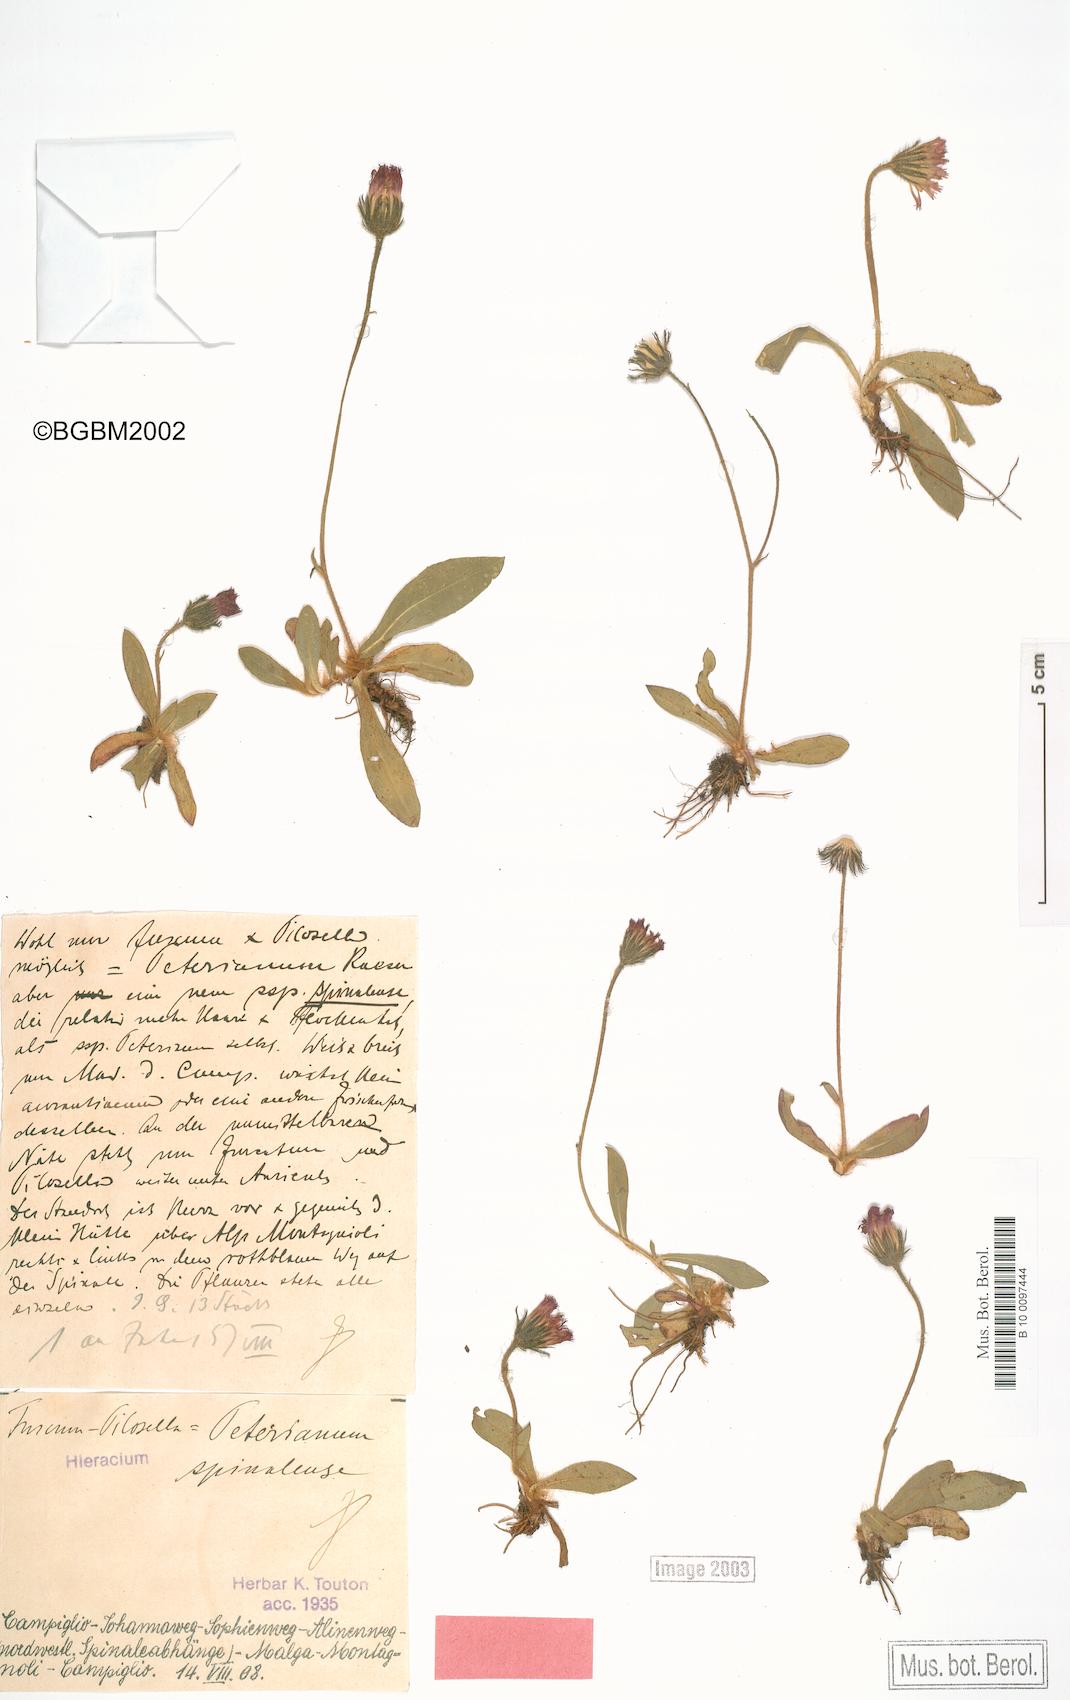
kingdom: Plantae
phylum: Tracheophyta
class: Magnoliopsida
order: Asterales
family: Asteraceae
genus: Pilosella
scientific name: Pilosella peteriana
